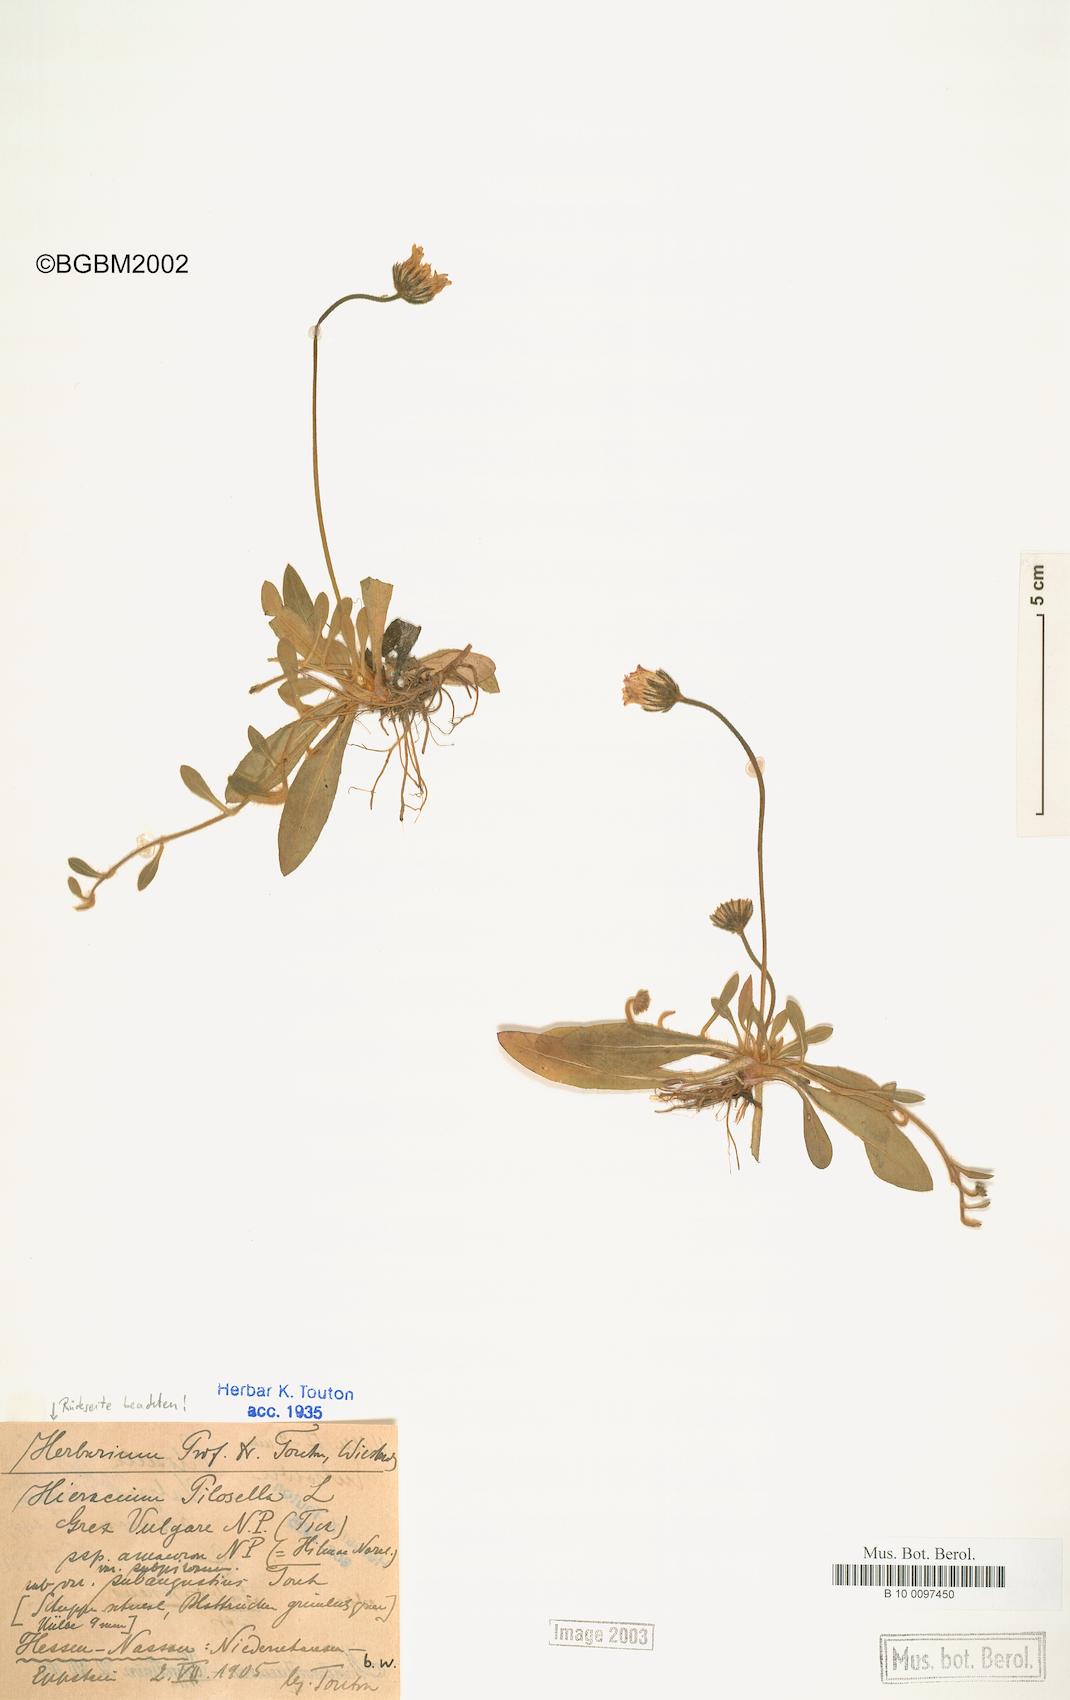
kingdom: Plantae
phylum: Tracheophyta
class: Magnoliopsida
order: Asterales
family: Asteraceae
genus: Pilosella
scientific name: Pilosella officinarum
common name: Mouse-ear hawkweed
